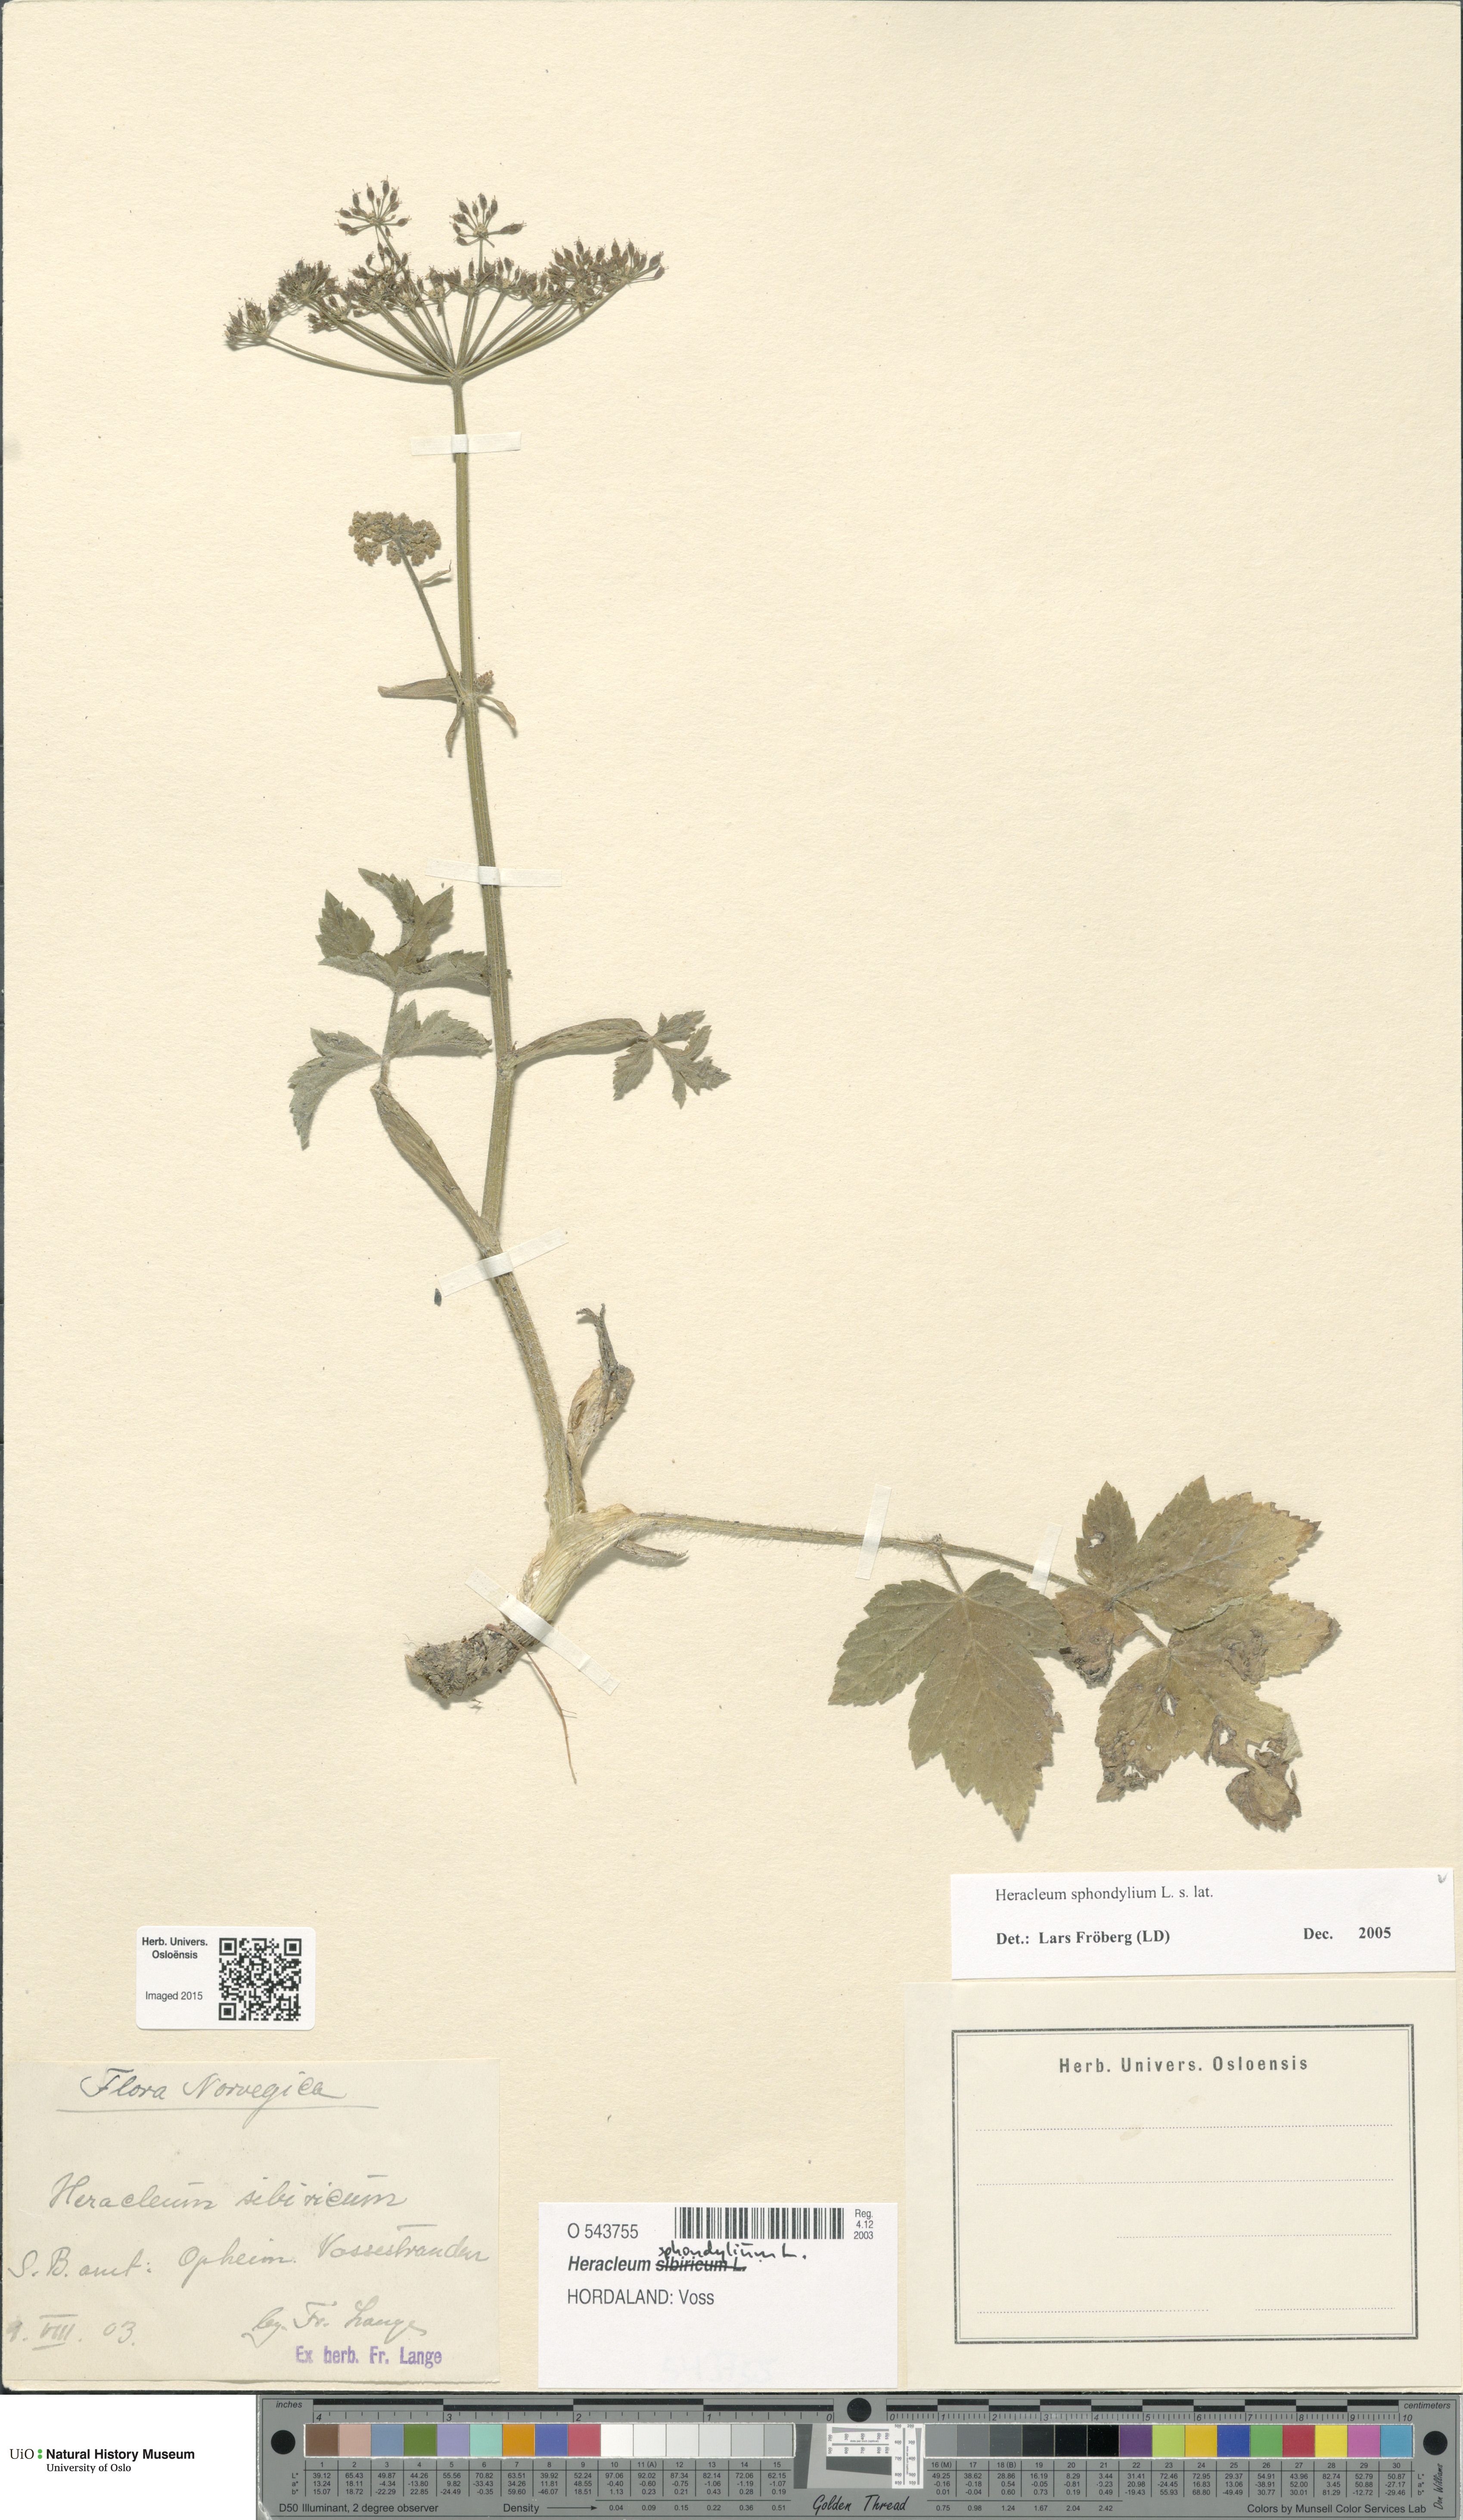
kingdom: Plantae
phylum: Tracheophyta
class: Magnoliopsida
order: Apiales
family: Apiaceae
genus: Heracleum
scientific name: Heracleum sphondylium
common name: Hogweed
